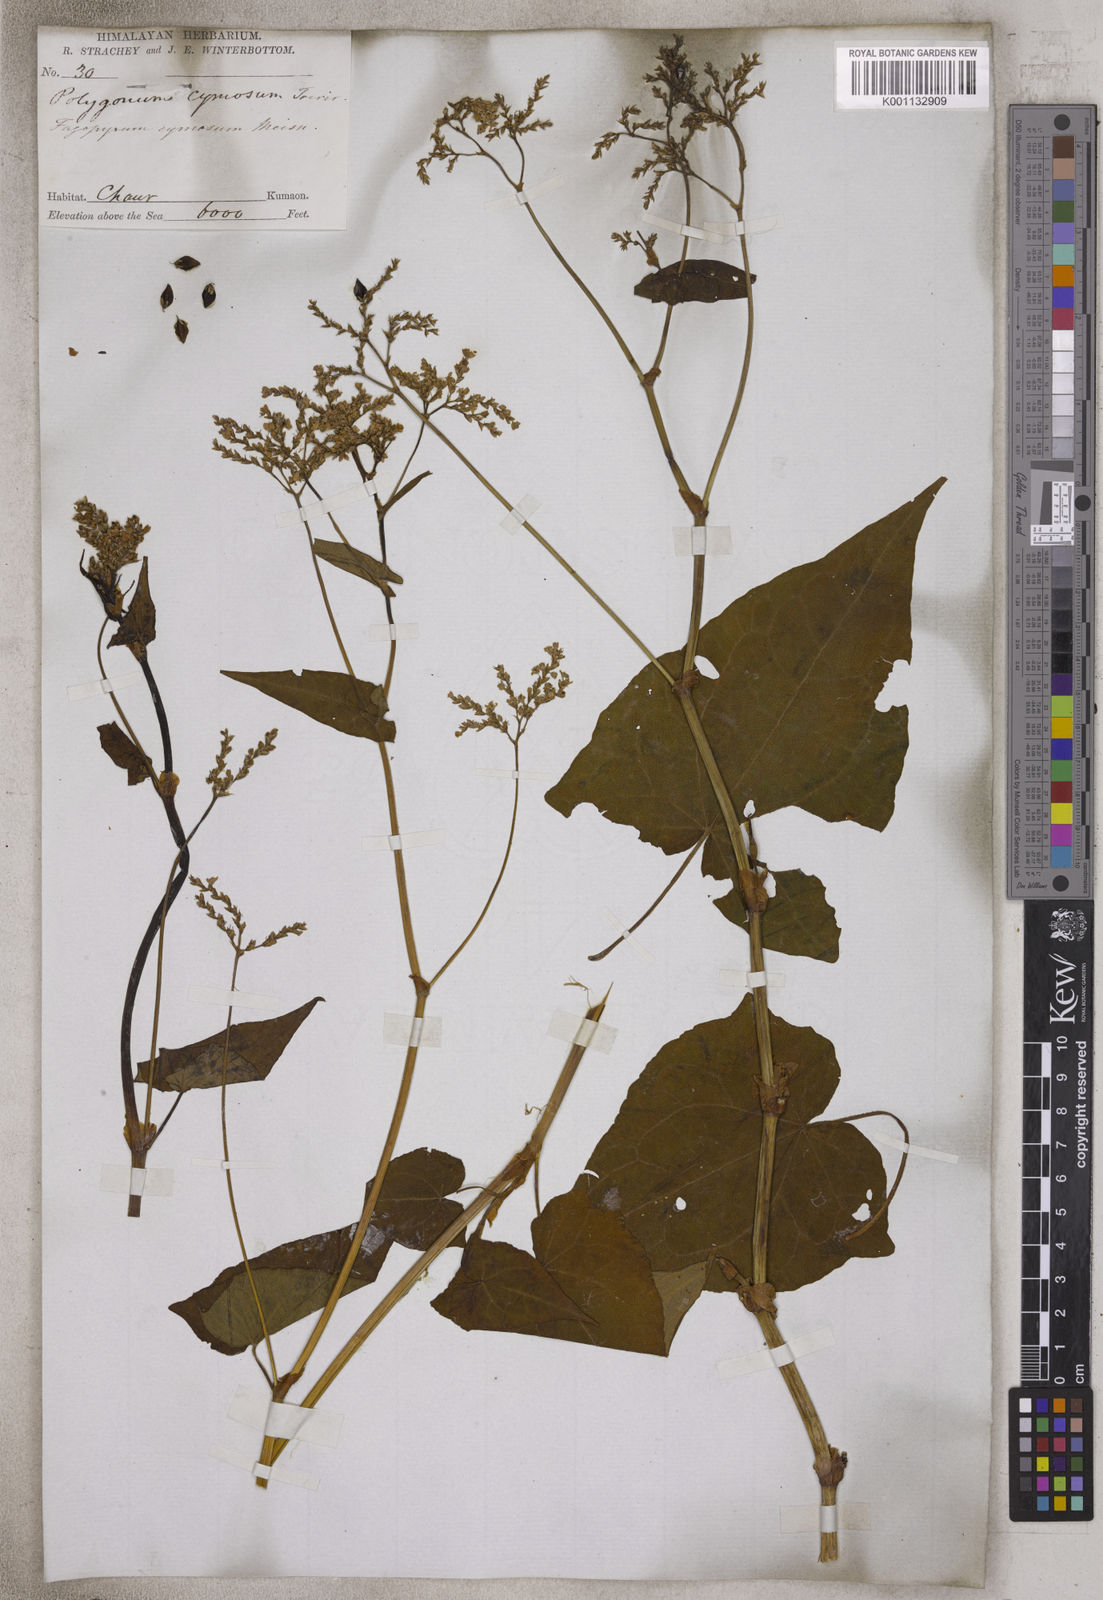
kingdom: Plantae
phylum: Tracheophyta
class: Magnoliopsida
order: Caryophyllales
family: Polygonaceae
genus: Fagopyrum
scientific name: Fagopyrum cymosum
